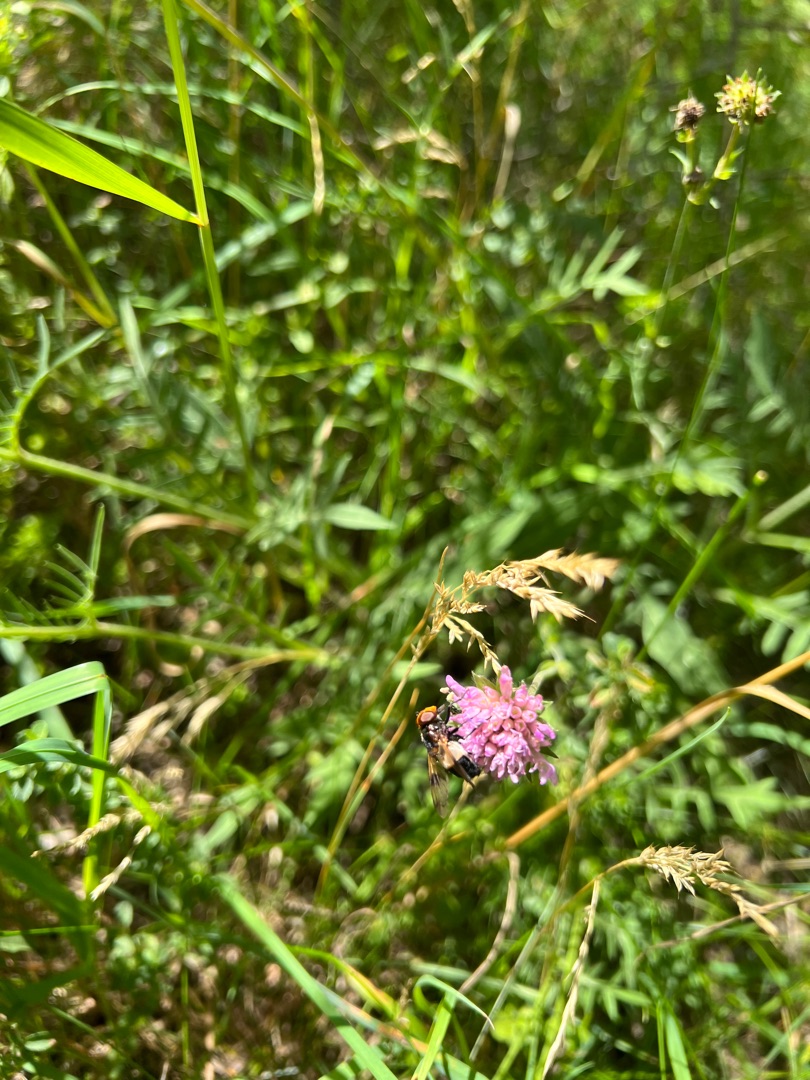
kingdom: Animalia
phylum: Arthropoda
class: Insecta
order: Diptera
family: Syrphidae
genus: Volucella
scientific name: Volucella pellucens
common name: Hvidbåndet humlesvirreflue
